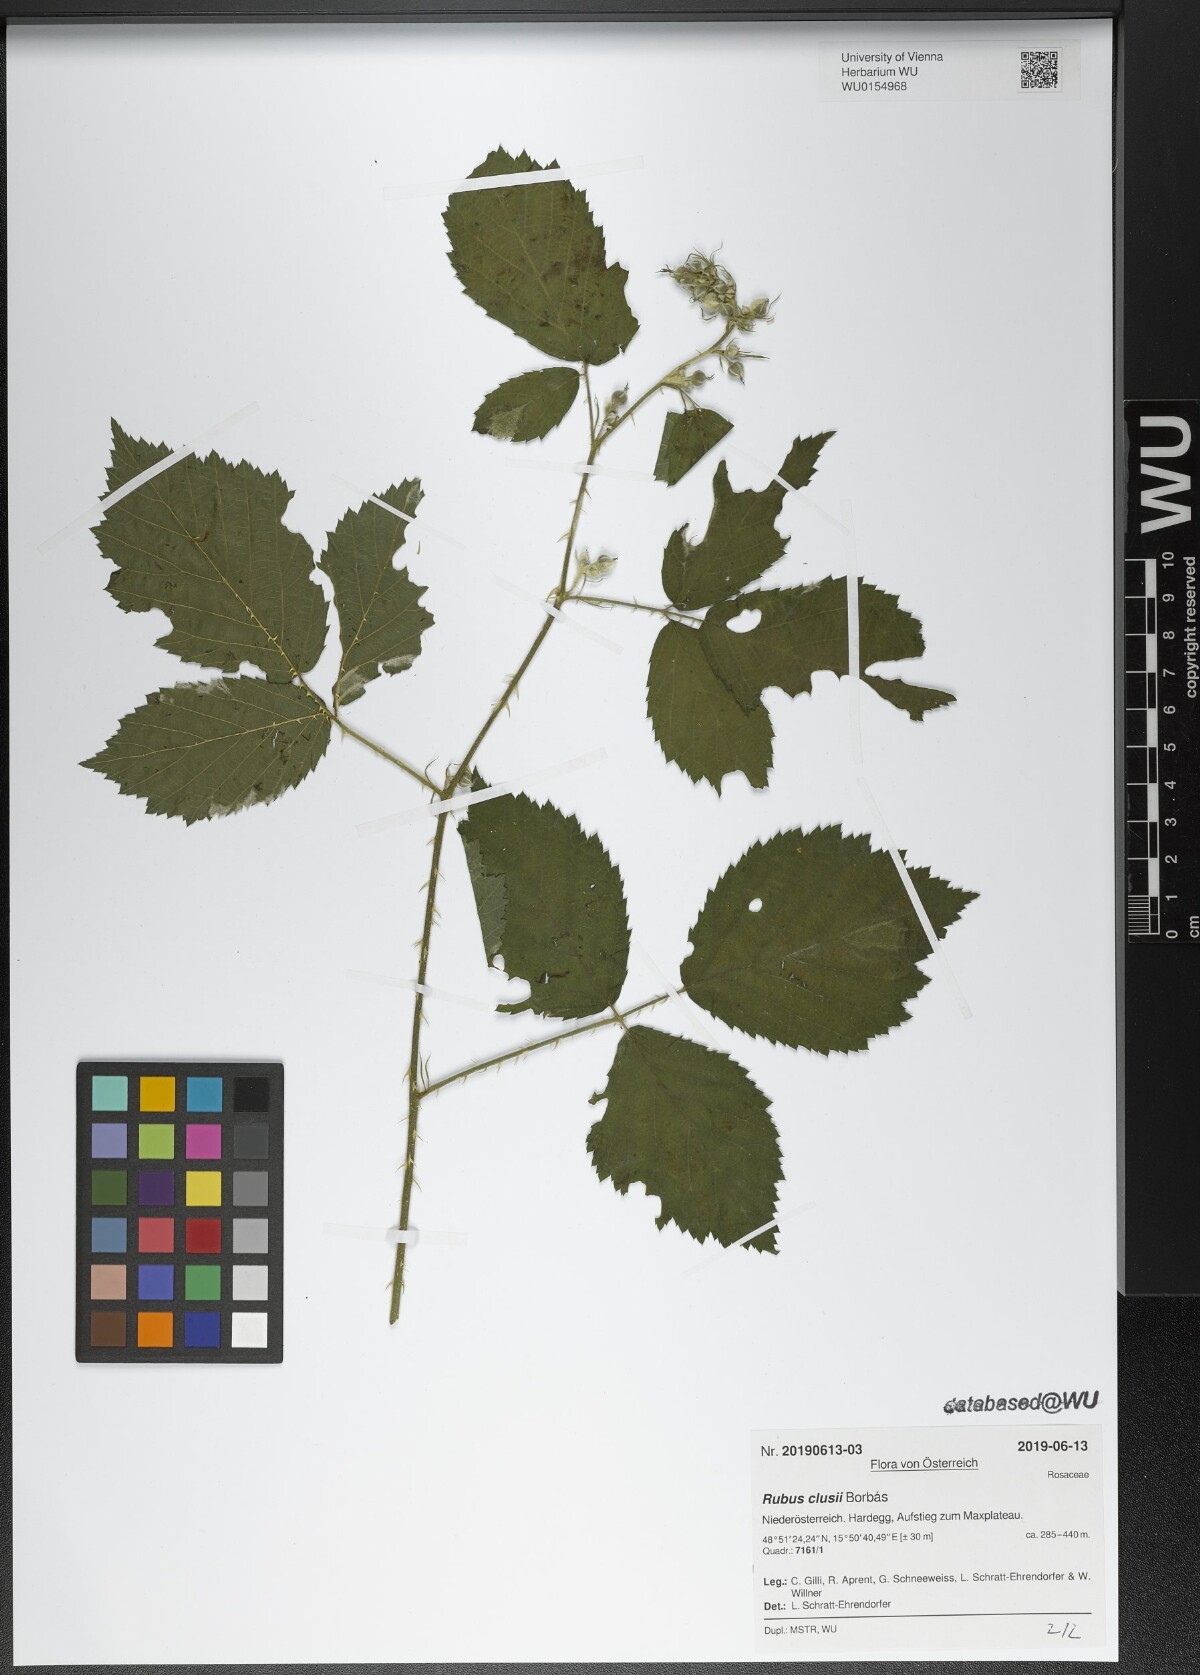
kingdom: Plantae
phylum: Tracheophyta
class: Magnoliopsida
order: Rosales
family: Rosaceae
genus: Rubus
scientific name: Rubus clusii
